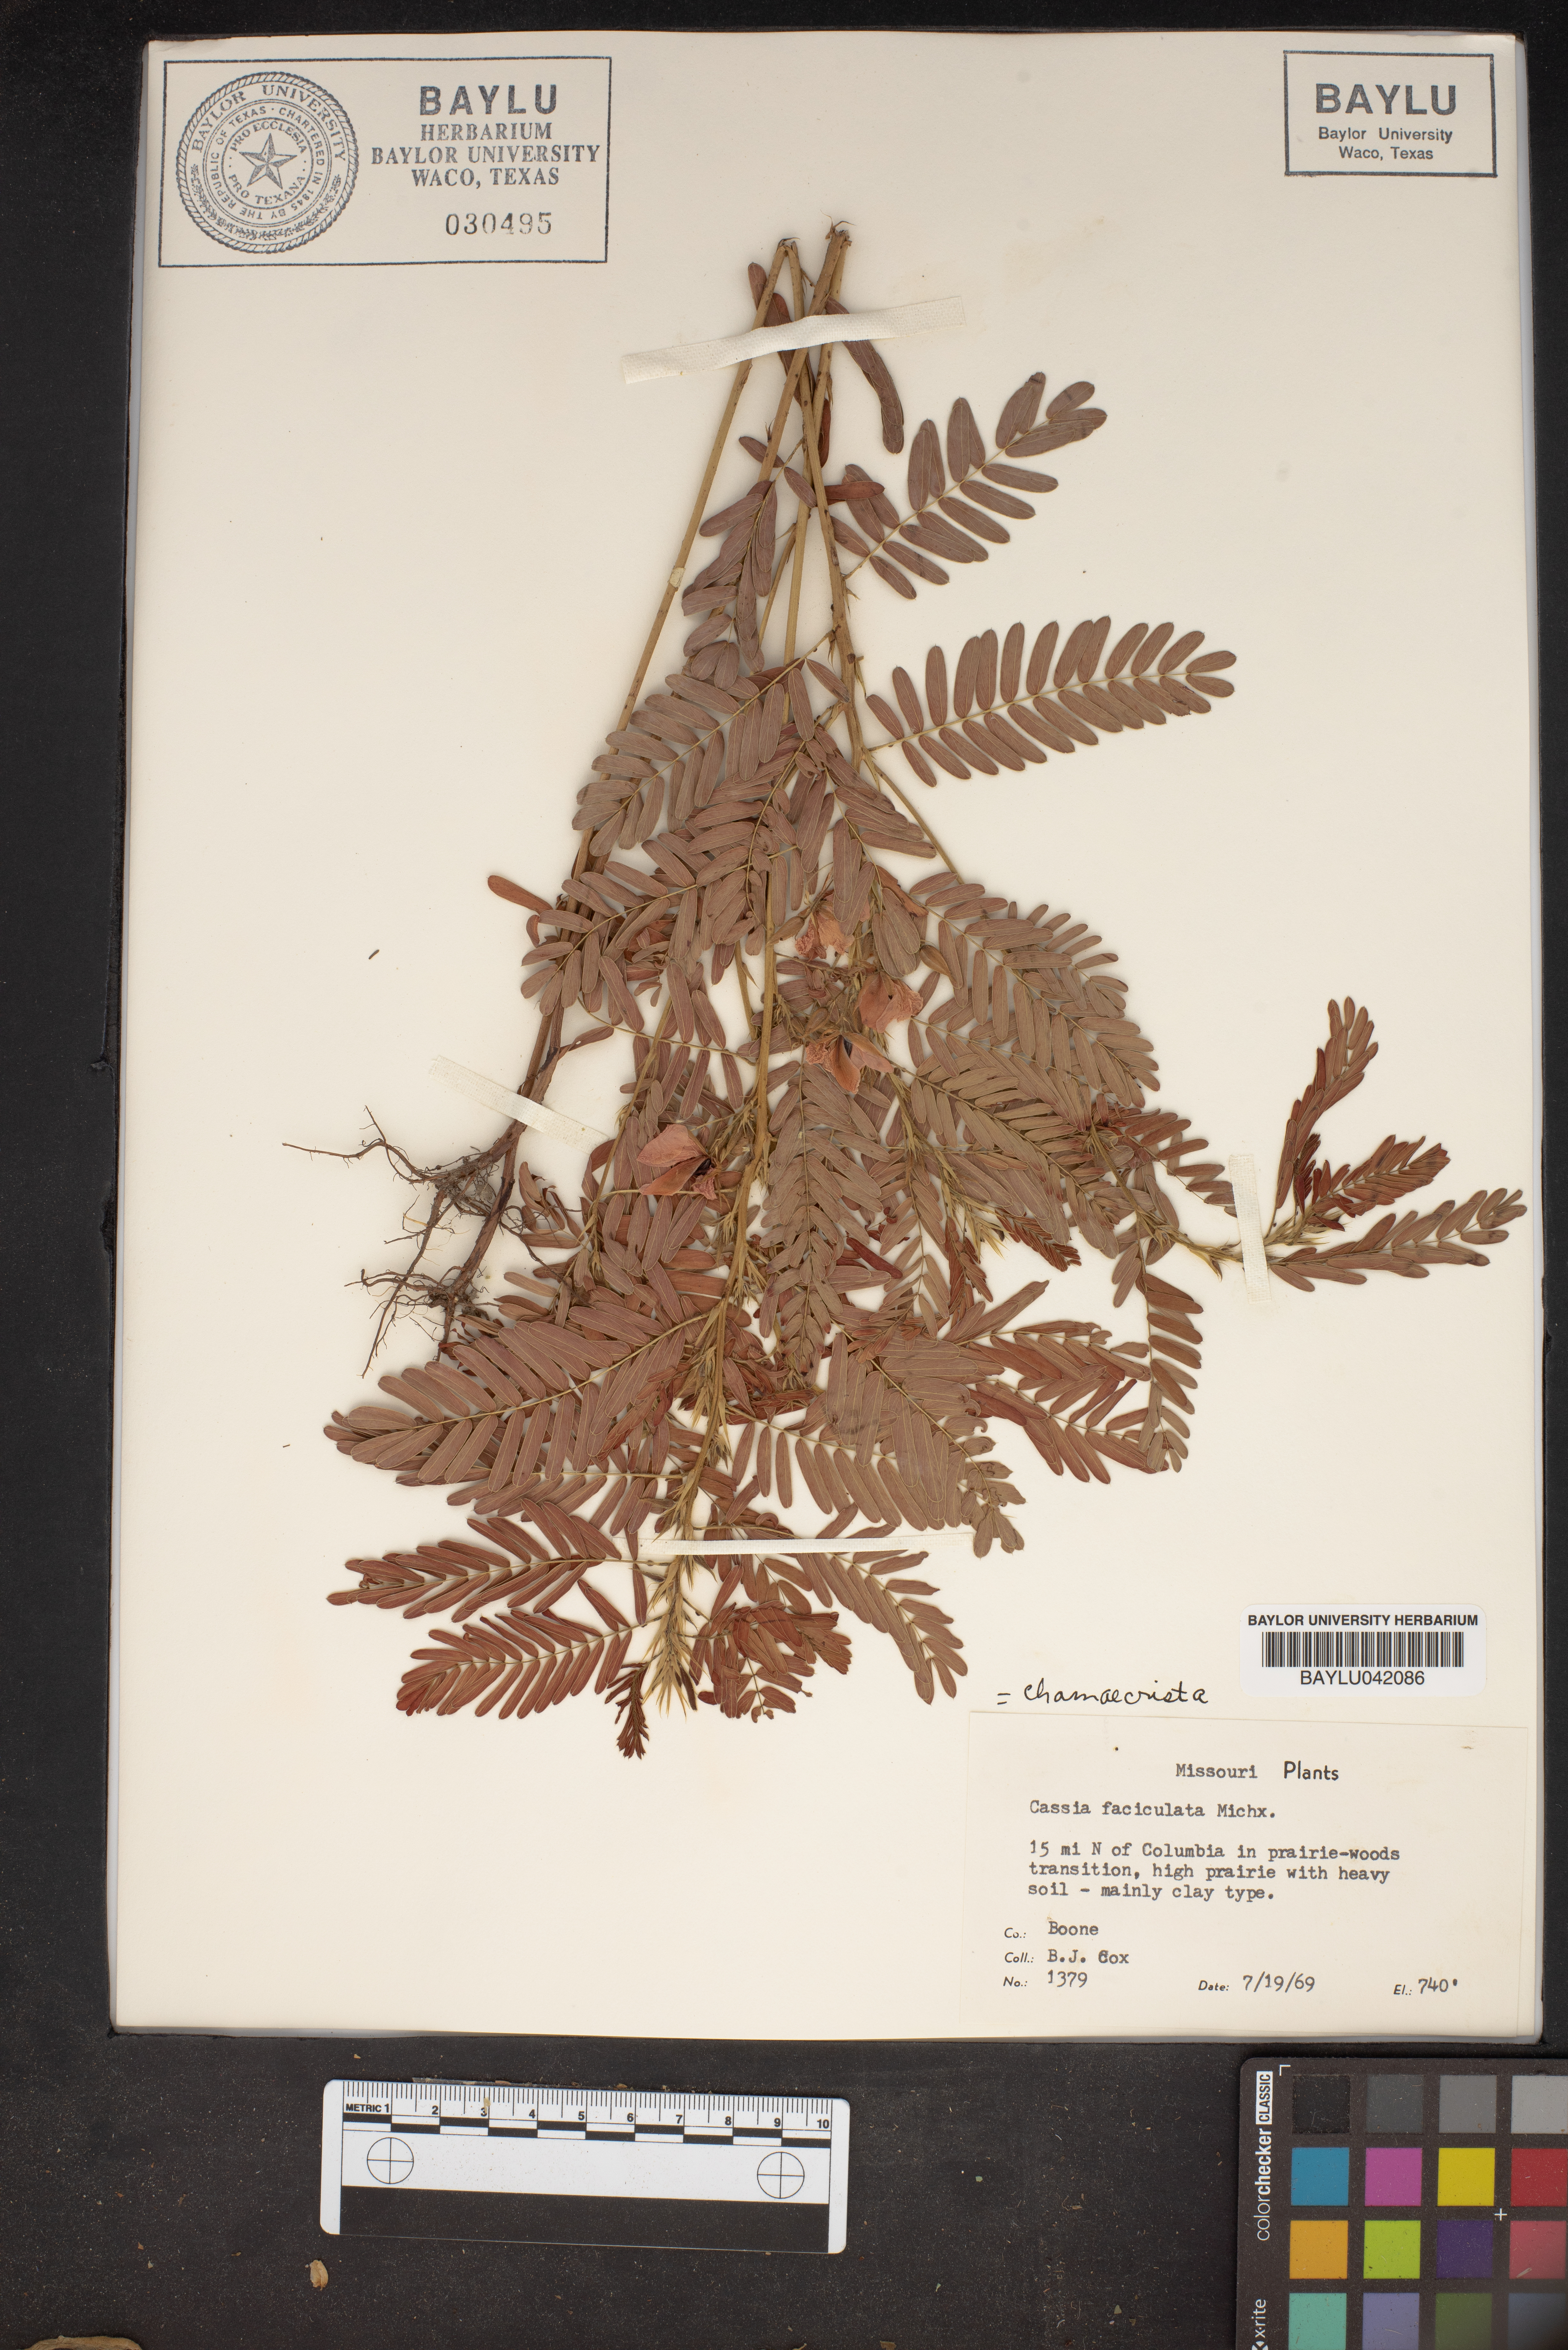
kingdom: Plantae
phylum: Tracheophyta
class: Magnoliopsida
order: Fabales
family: Fabaceae
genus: Chamaecrista
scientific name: Chamaecrista fasciculata
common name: Golden cassia
